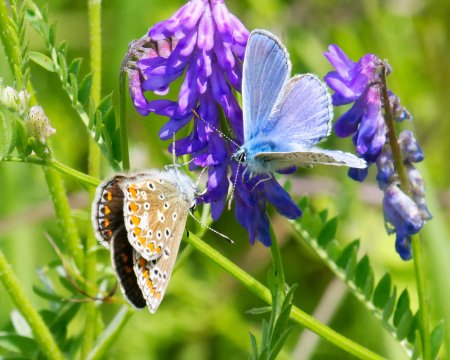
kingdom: Animalia
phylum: Arthropoda
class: Insecta
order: Lepidoptera
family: Lycaenidae
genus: Polyommatus
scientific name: Polyommatus icarus
